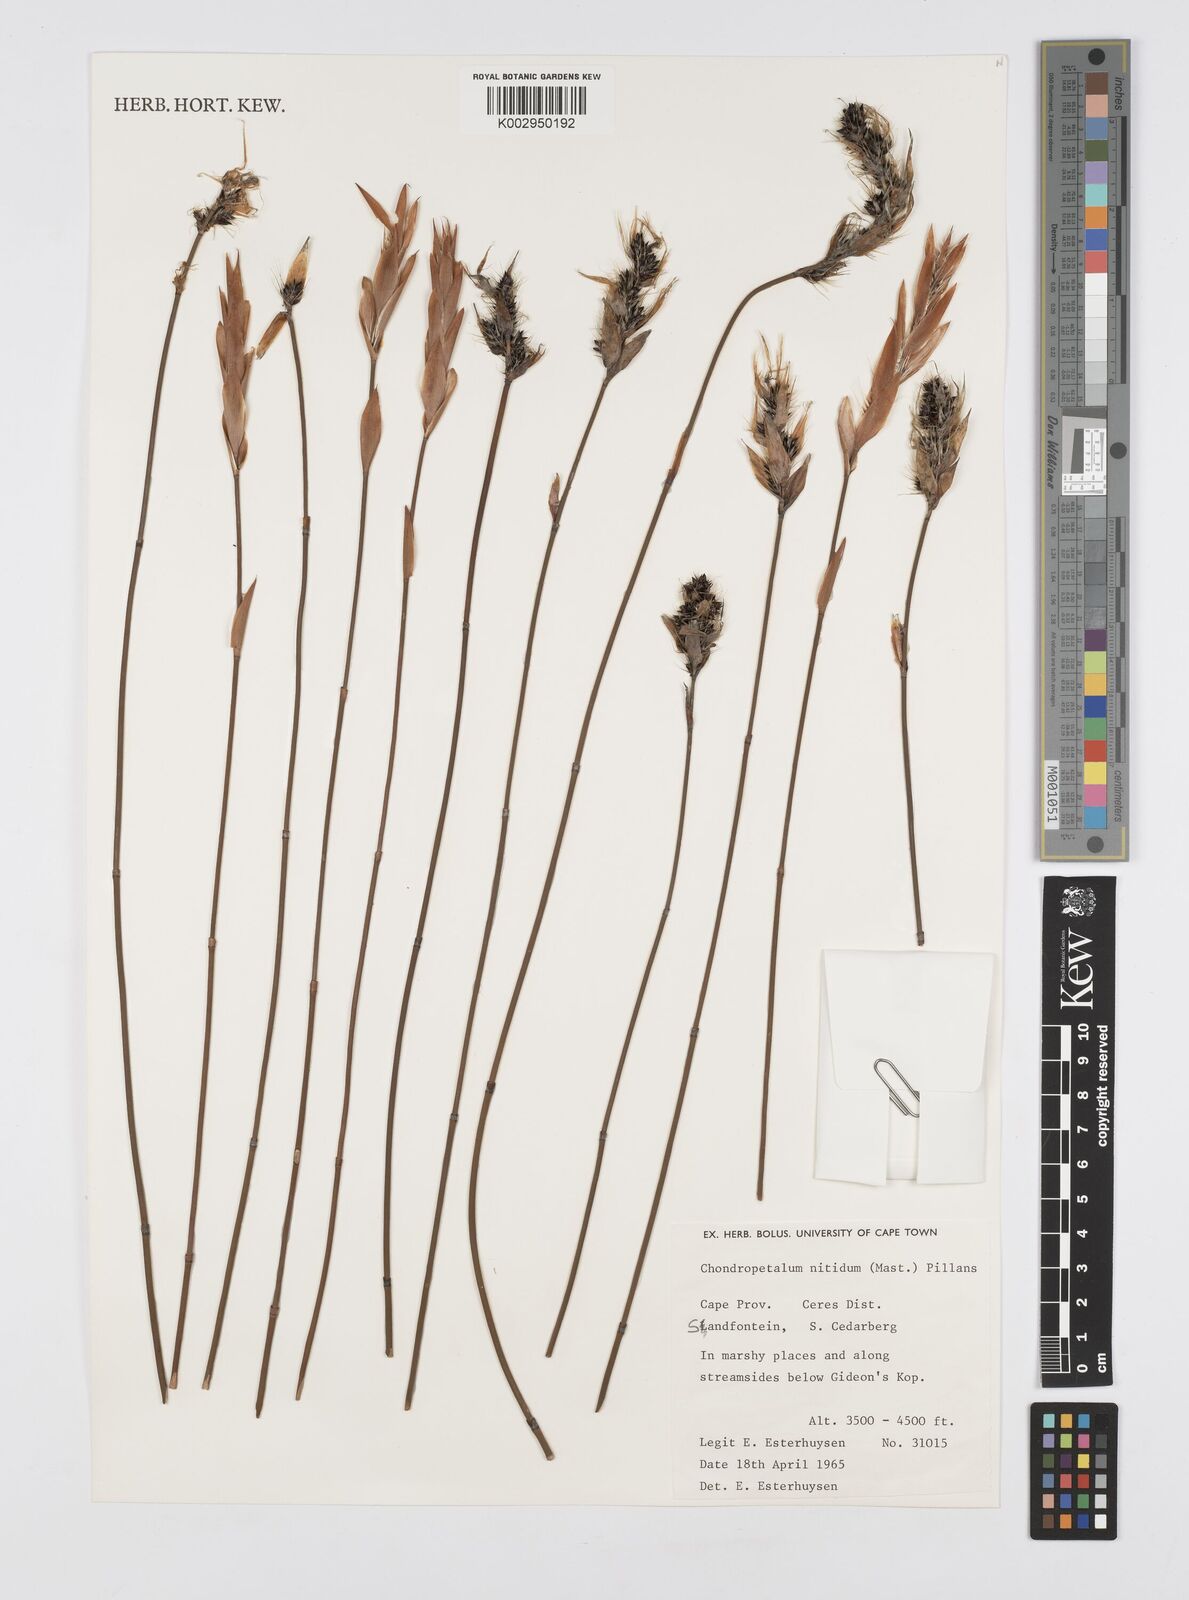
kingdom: Plantae
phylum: Tracheophyta
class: Liliopsida
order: Poales
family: Restionaceae
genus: Askidiosperma
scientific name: Askidiosperma nitidum
